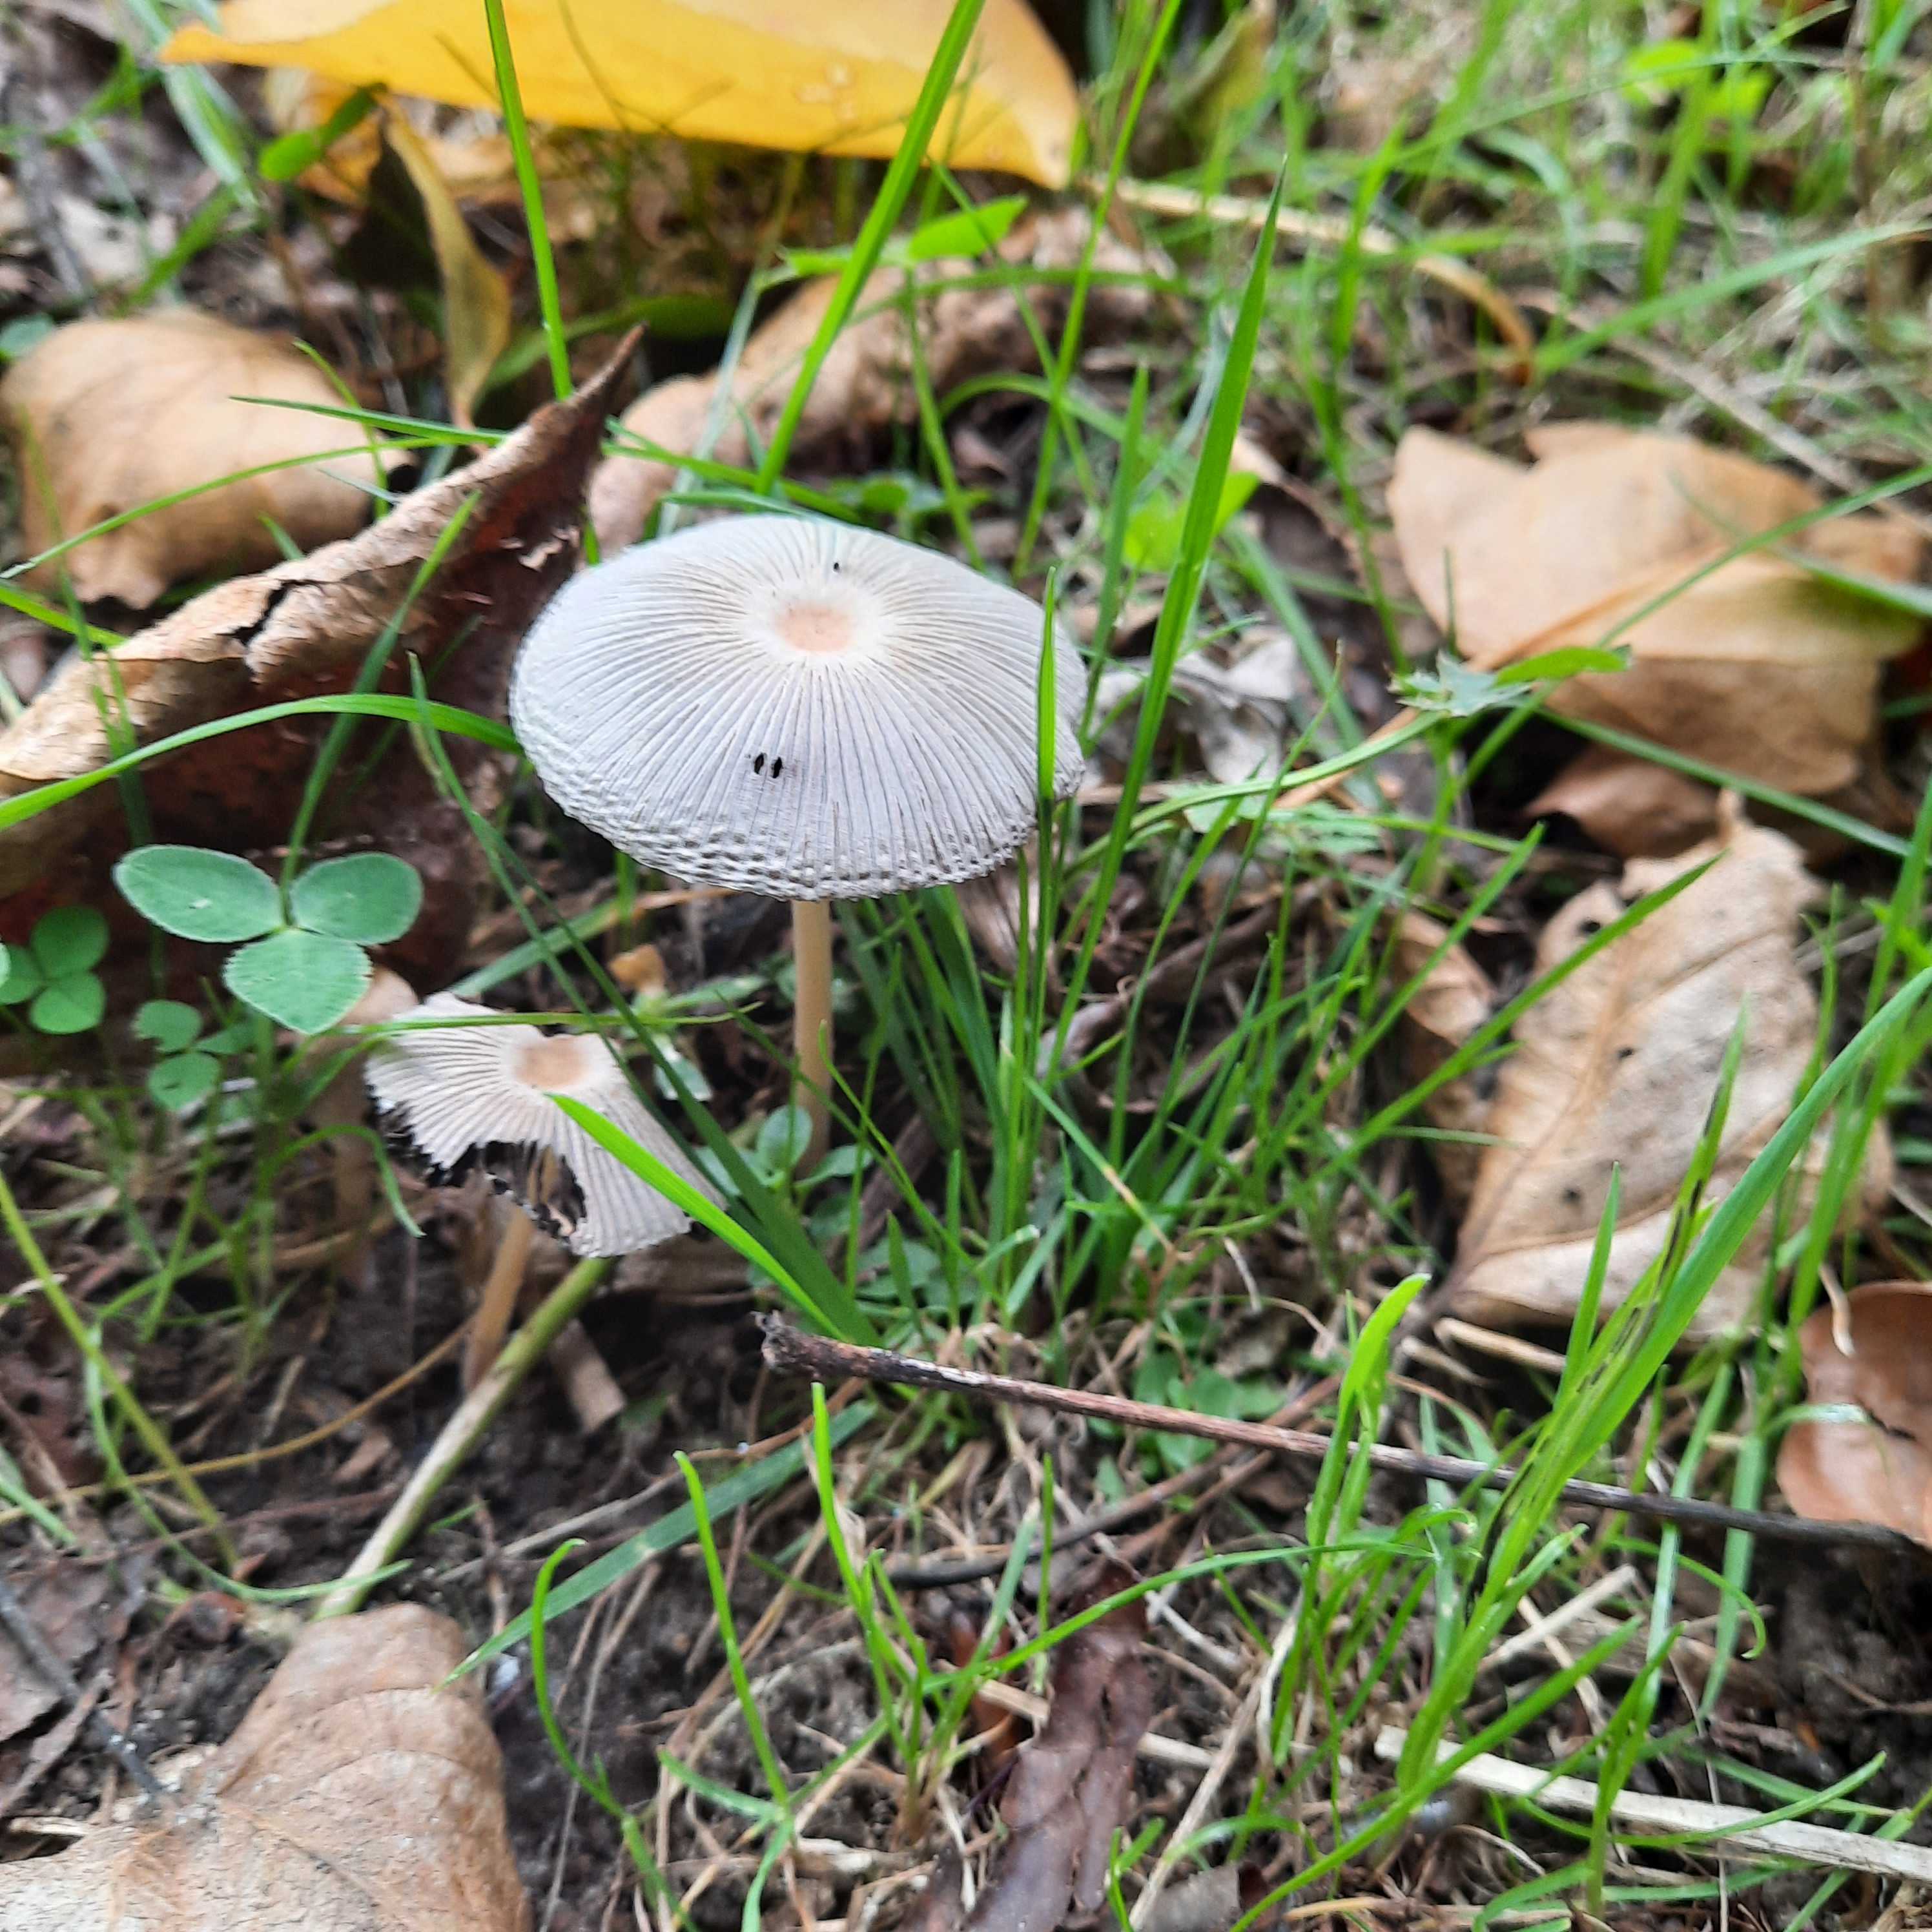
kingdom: Fungi
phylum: Basidiomycota
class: Agaricomycetes
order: Agaricales
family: Psathyrellaceae
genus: Parasola
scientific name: Parasola
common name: hjulhat
